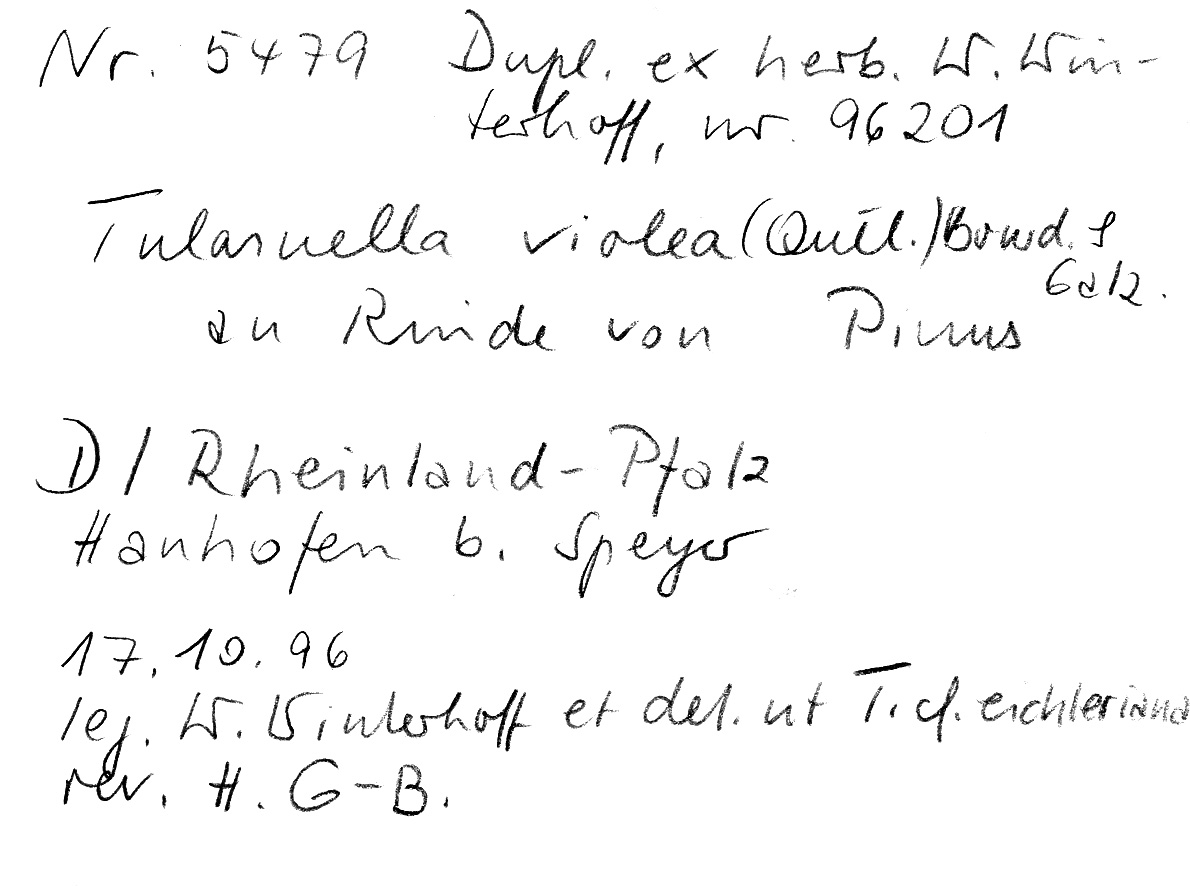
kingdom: Fungi
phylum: Basidiomycota
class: Agaricomycetes
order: Cantharellales
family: Tulasnellaceae
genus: Tulasnella
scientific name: Tulasnella violea
